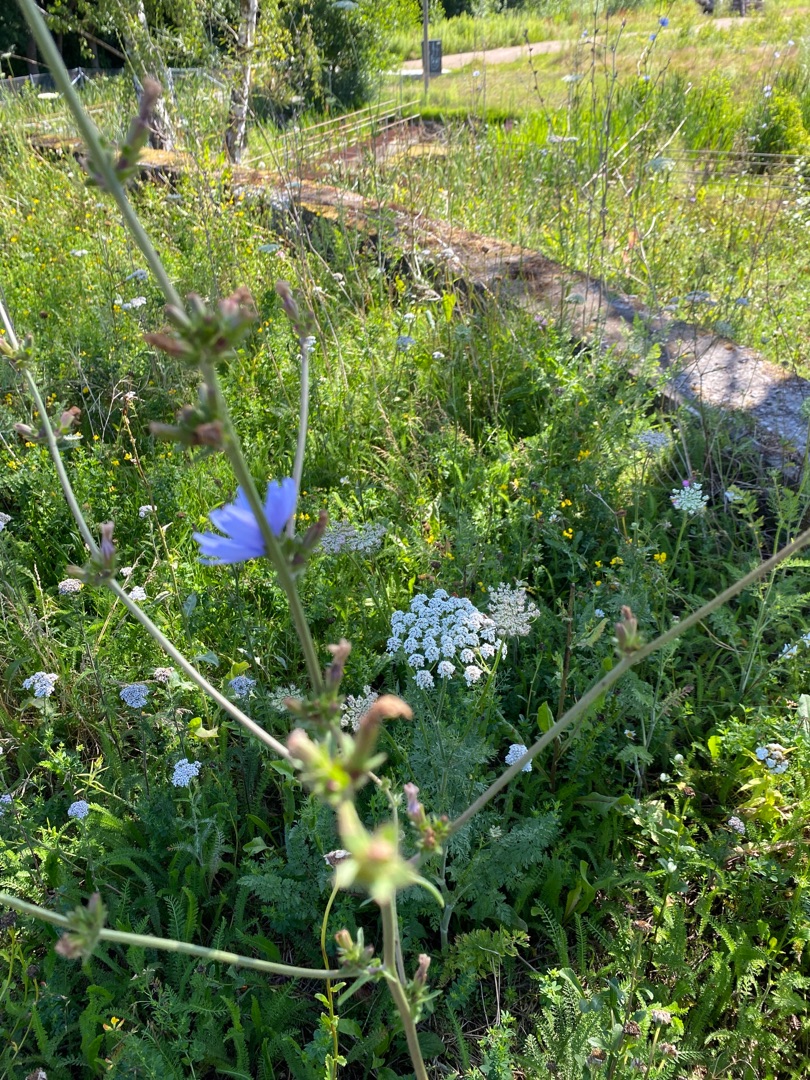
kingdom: Plantae
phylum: Tracheophyta
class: Magnoliopsida
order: Asterales
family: Asteraceae
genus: Cichorium
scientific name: Cichorium intybus
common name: Cikorie
